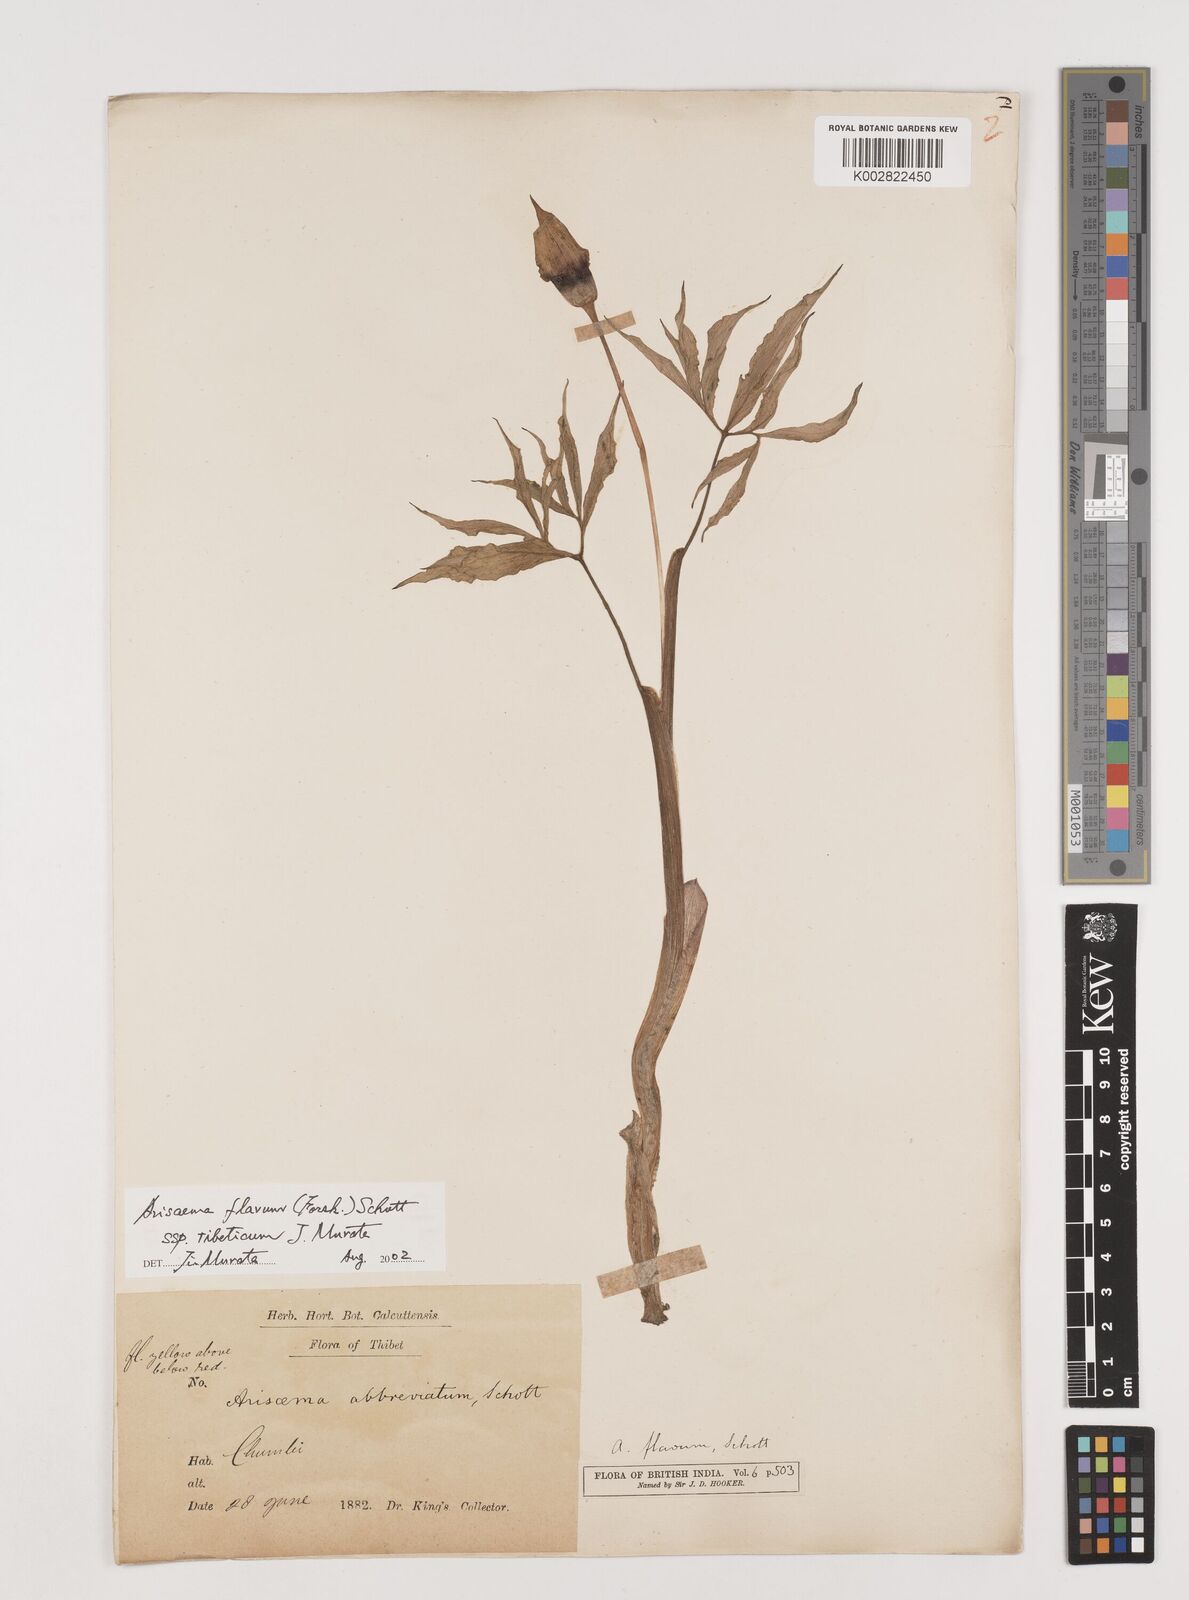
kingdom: Plantae
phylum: Tracheophyta
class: Liliopsida
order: Alismatales
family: Araceae
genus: Arisaema
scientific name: Arisaema flavum
